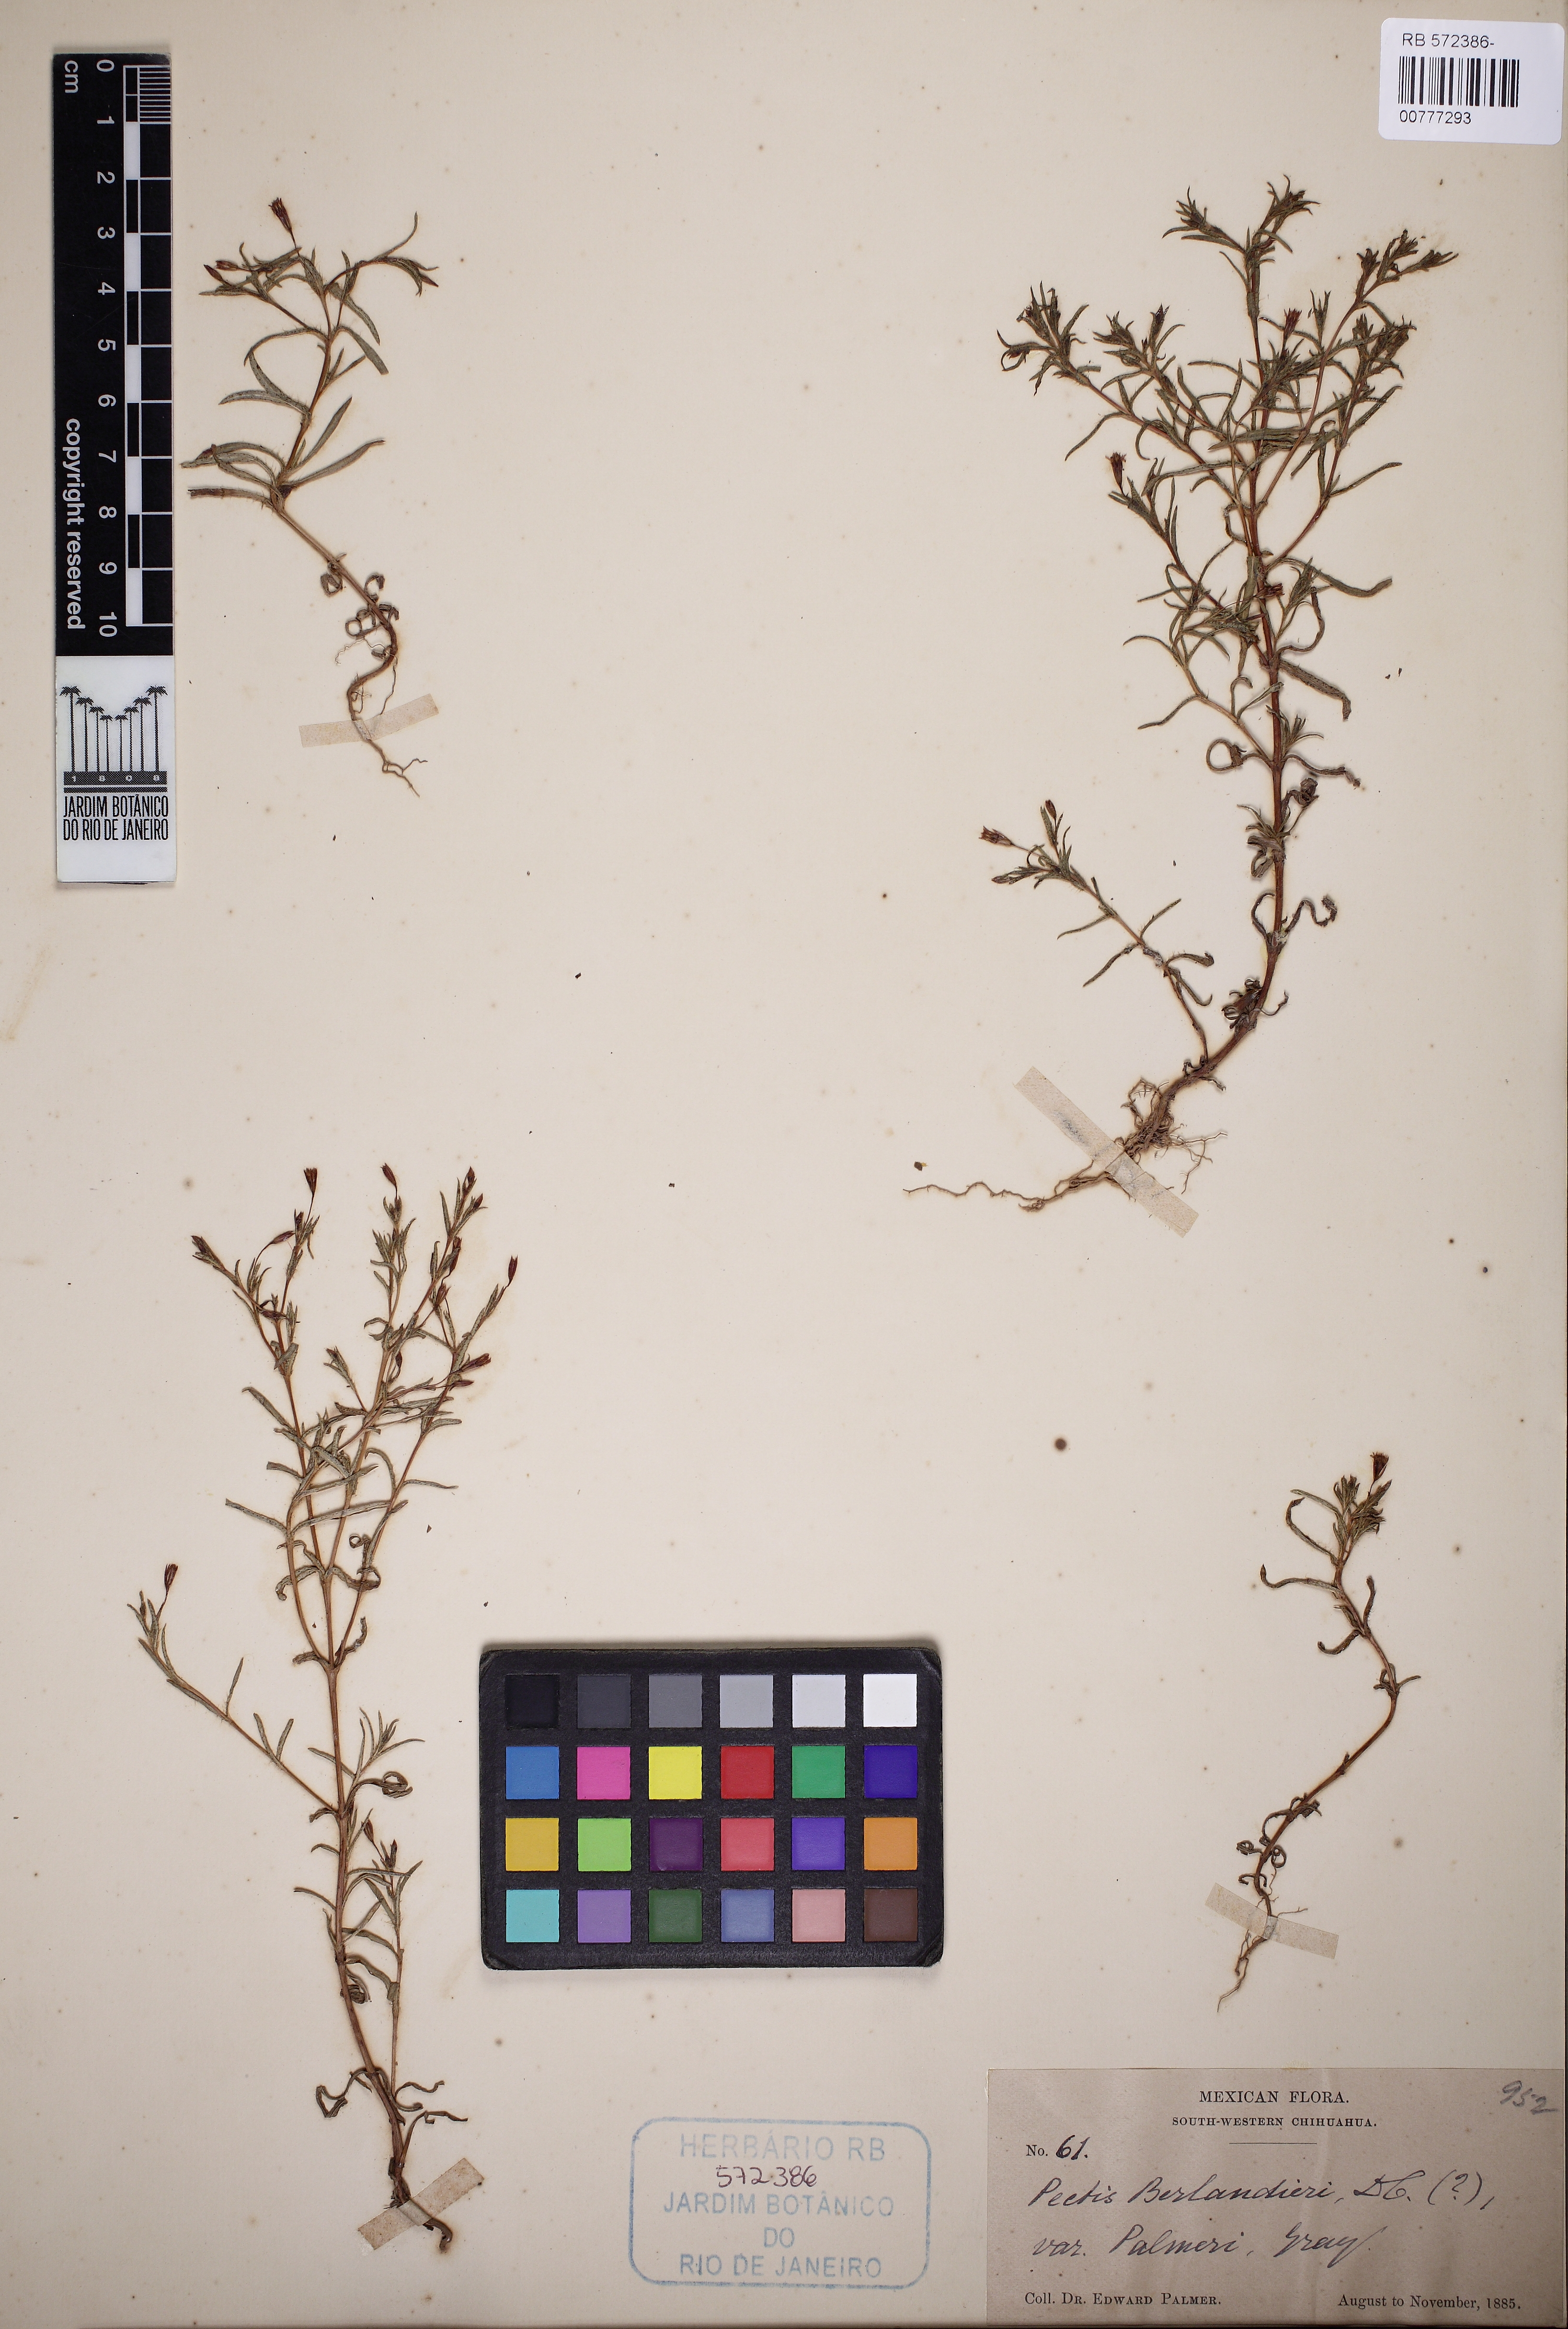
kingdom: Plantae
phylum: Tracheophyta
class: Magnoliopsida
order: Asterales
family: Asteraceae
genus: Pectis
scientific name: Pectis uniaristata
